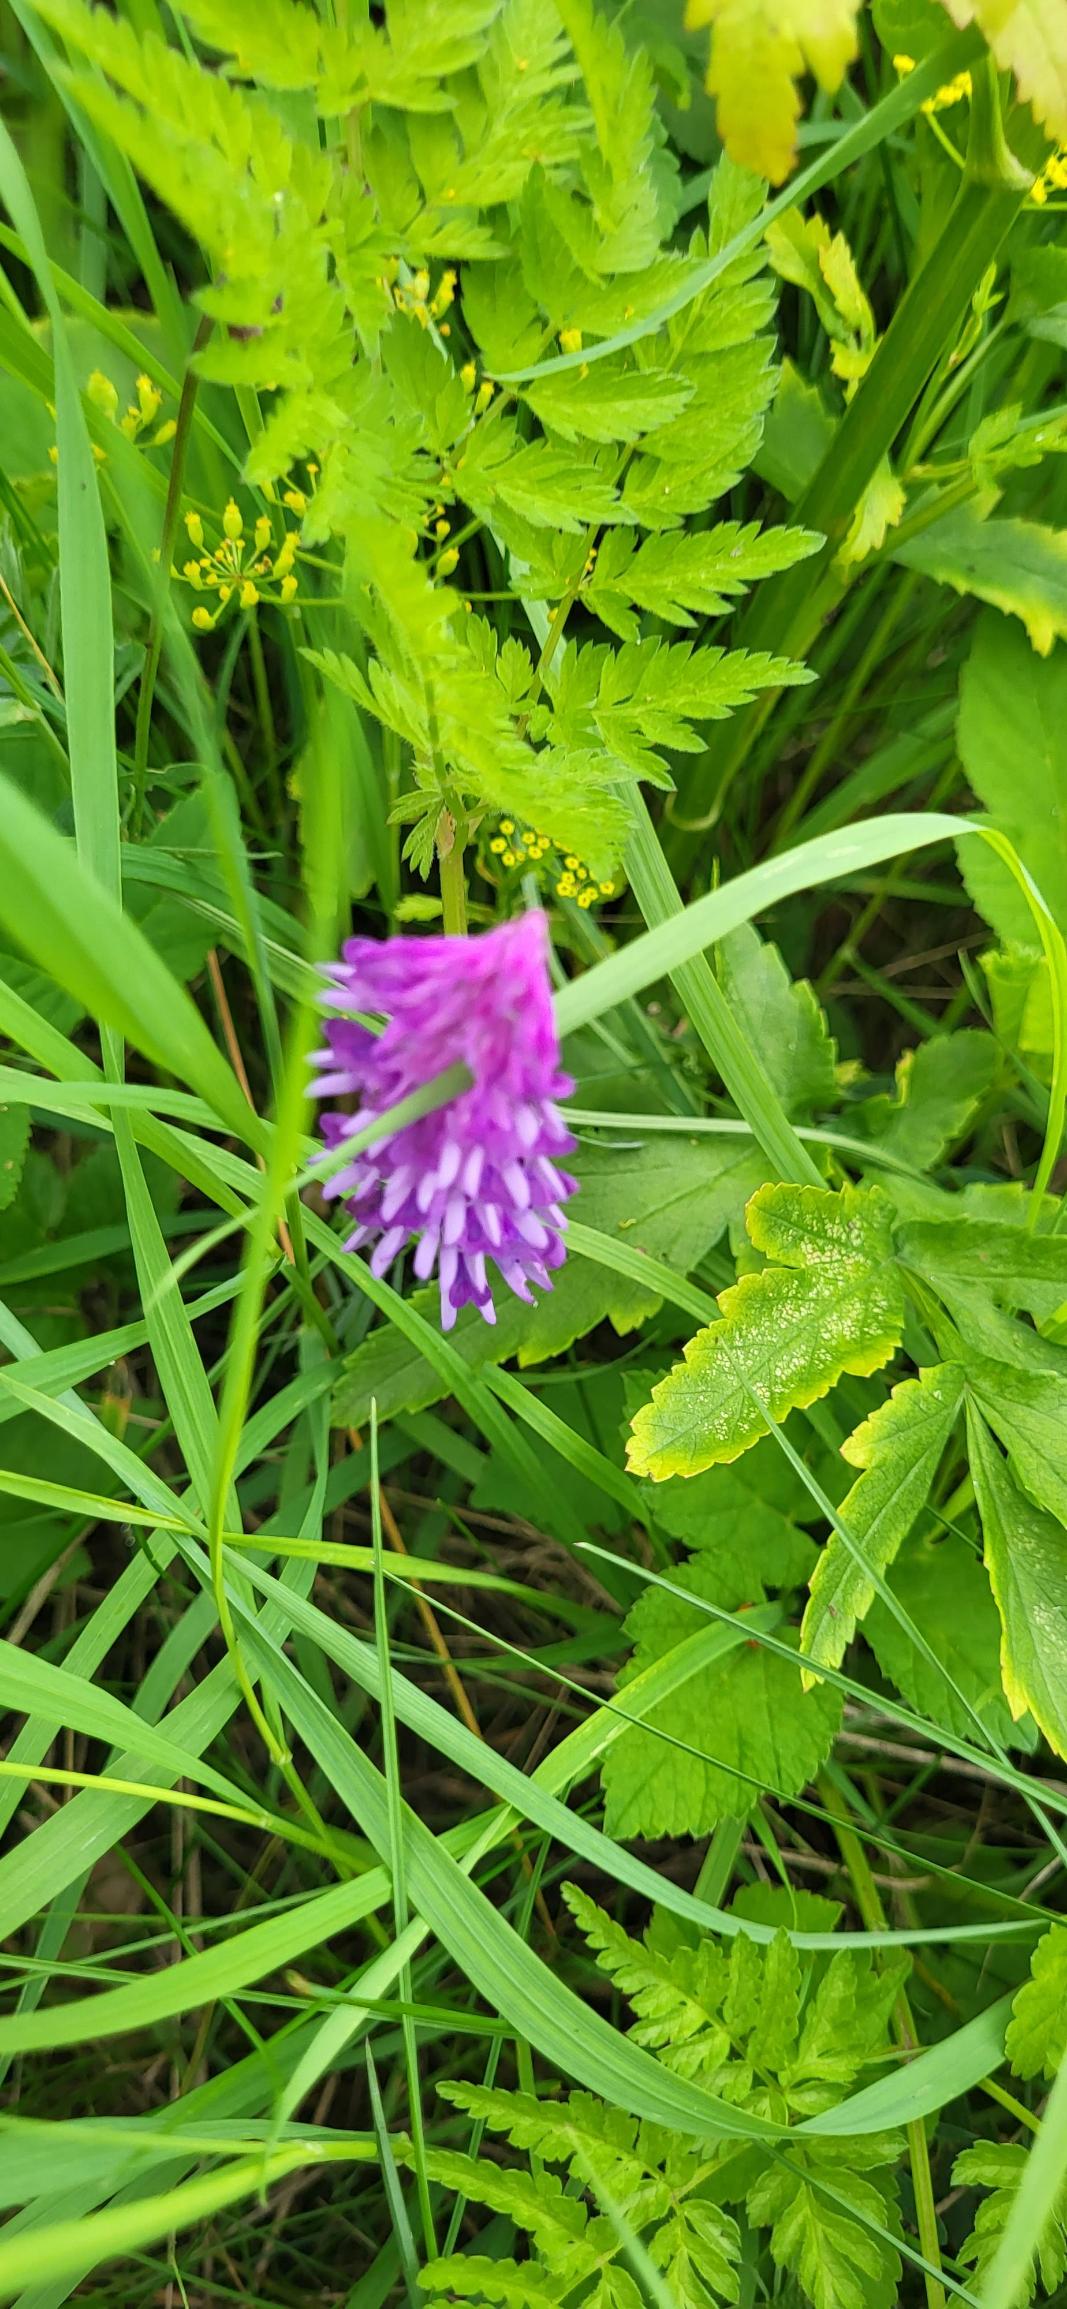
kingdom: Plantae
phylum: Tracheophyta
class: Magnoliopsida
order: Fabales
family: Fabaceae
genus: Vicia
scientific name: Vicia cracca
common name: Muse-vikke
